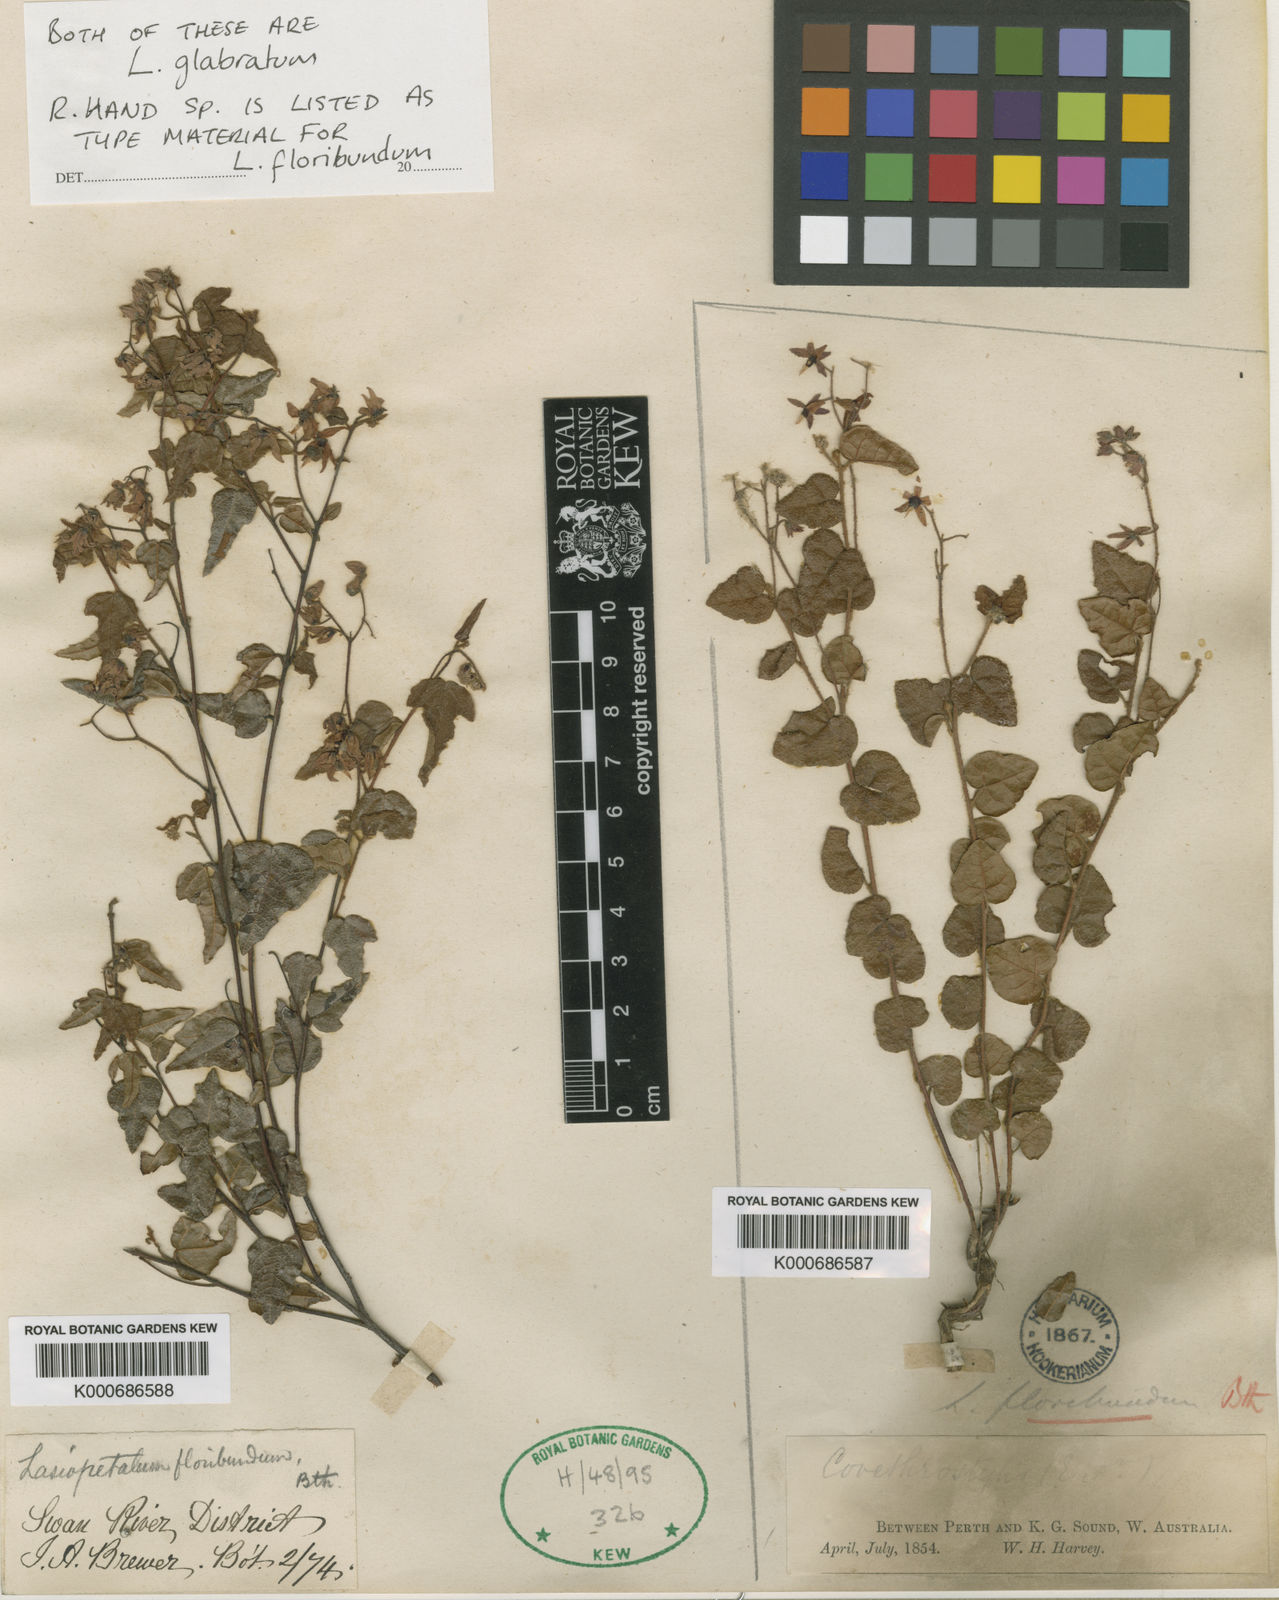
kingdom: Plantae
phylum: Tracheophyta
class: Magnoliopsida
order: Malvales
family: Malvaceae
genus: Lasiopetalum
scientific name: Lasiopetalum floribundum
